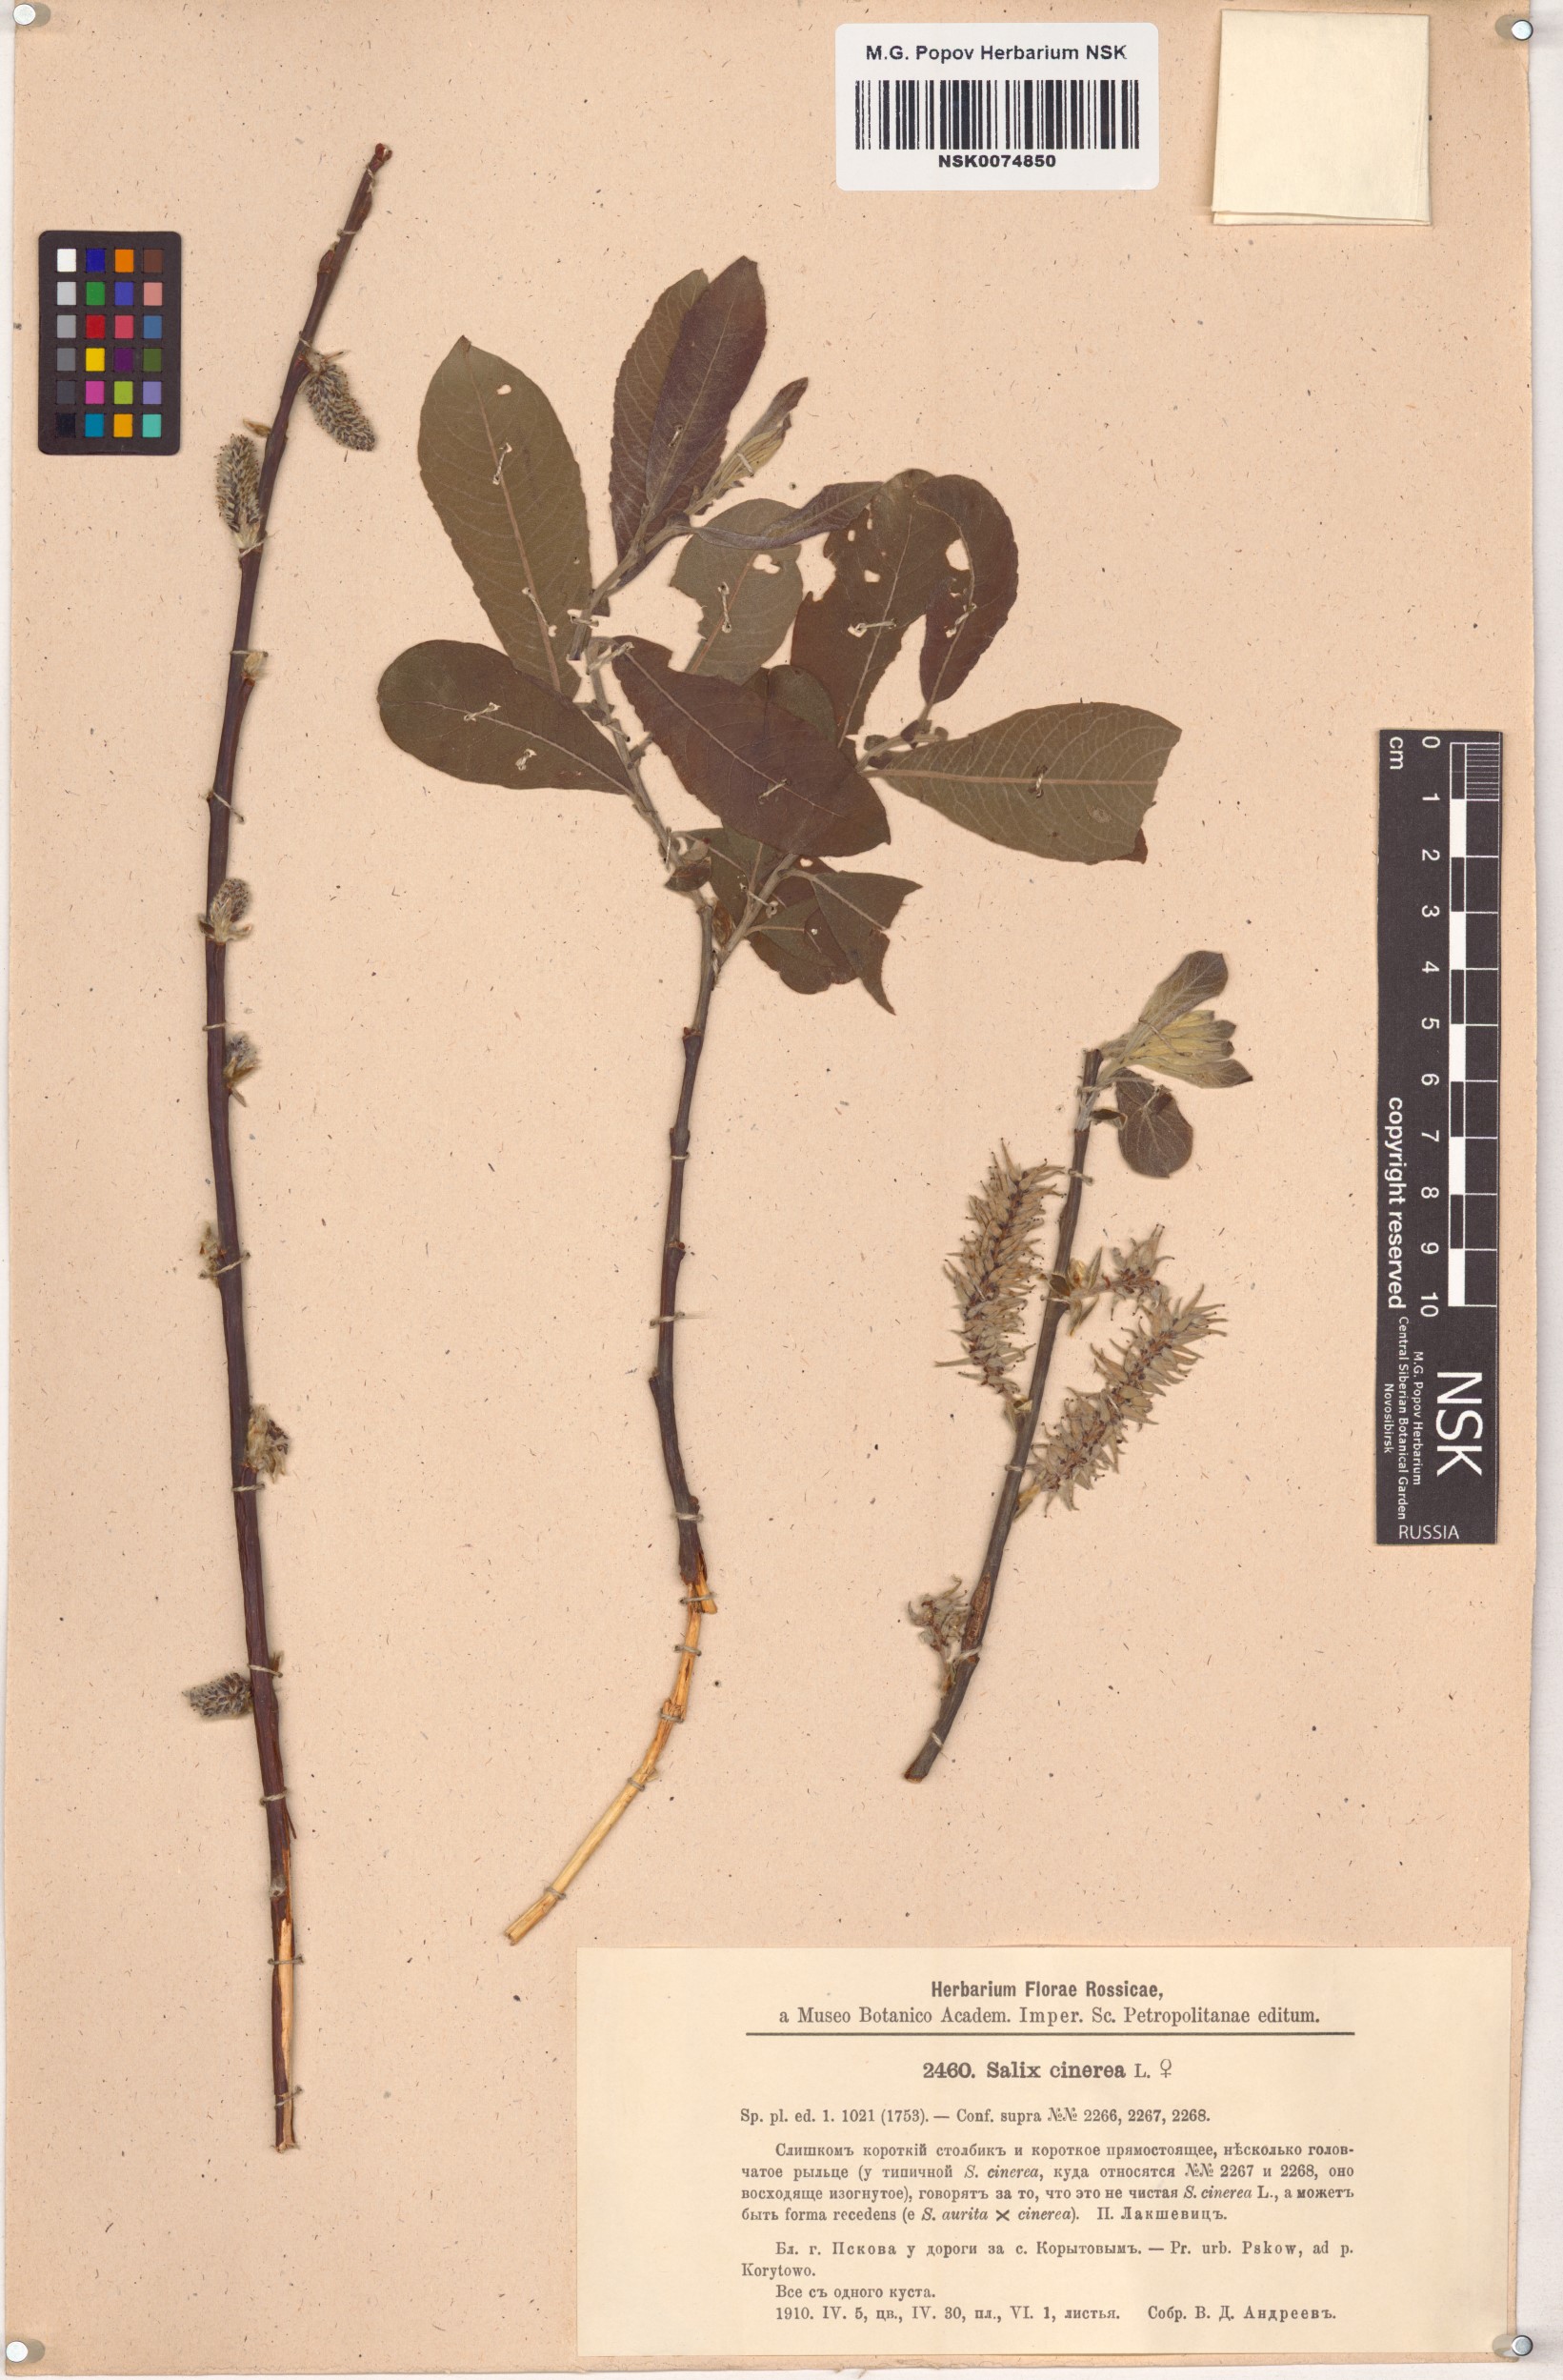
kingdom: Plantae
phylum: Tracheophyta
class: Magnoliopsida
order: Malpighiales
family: Salicaceae
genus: Salix
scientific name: Salix cinerea
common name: Common sallow
